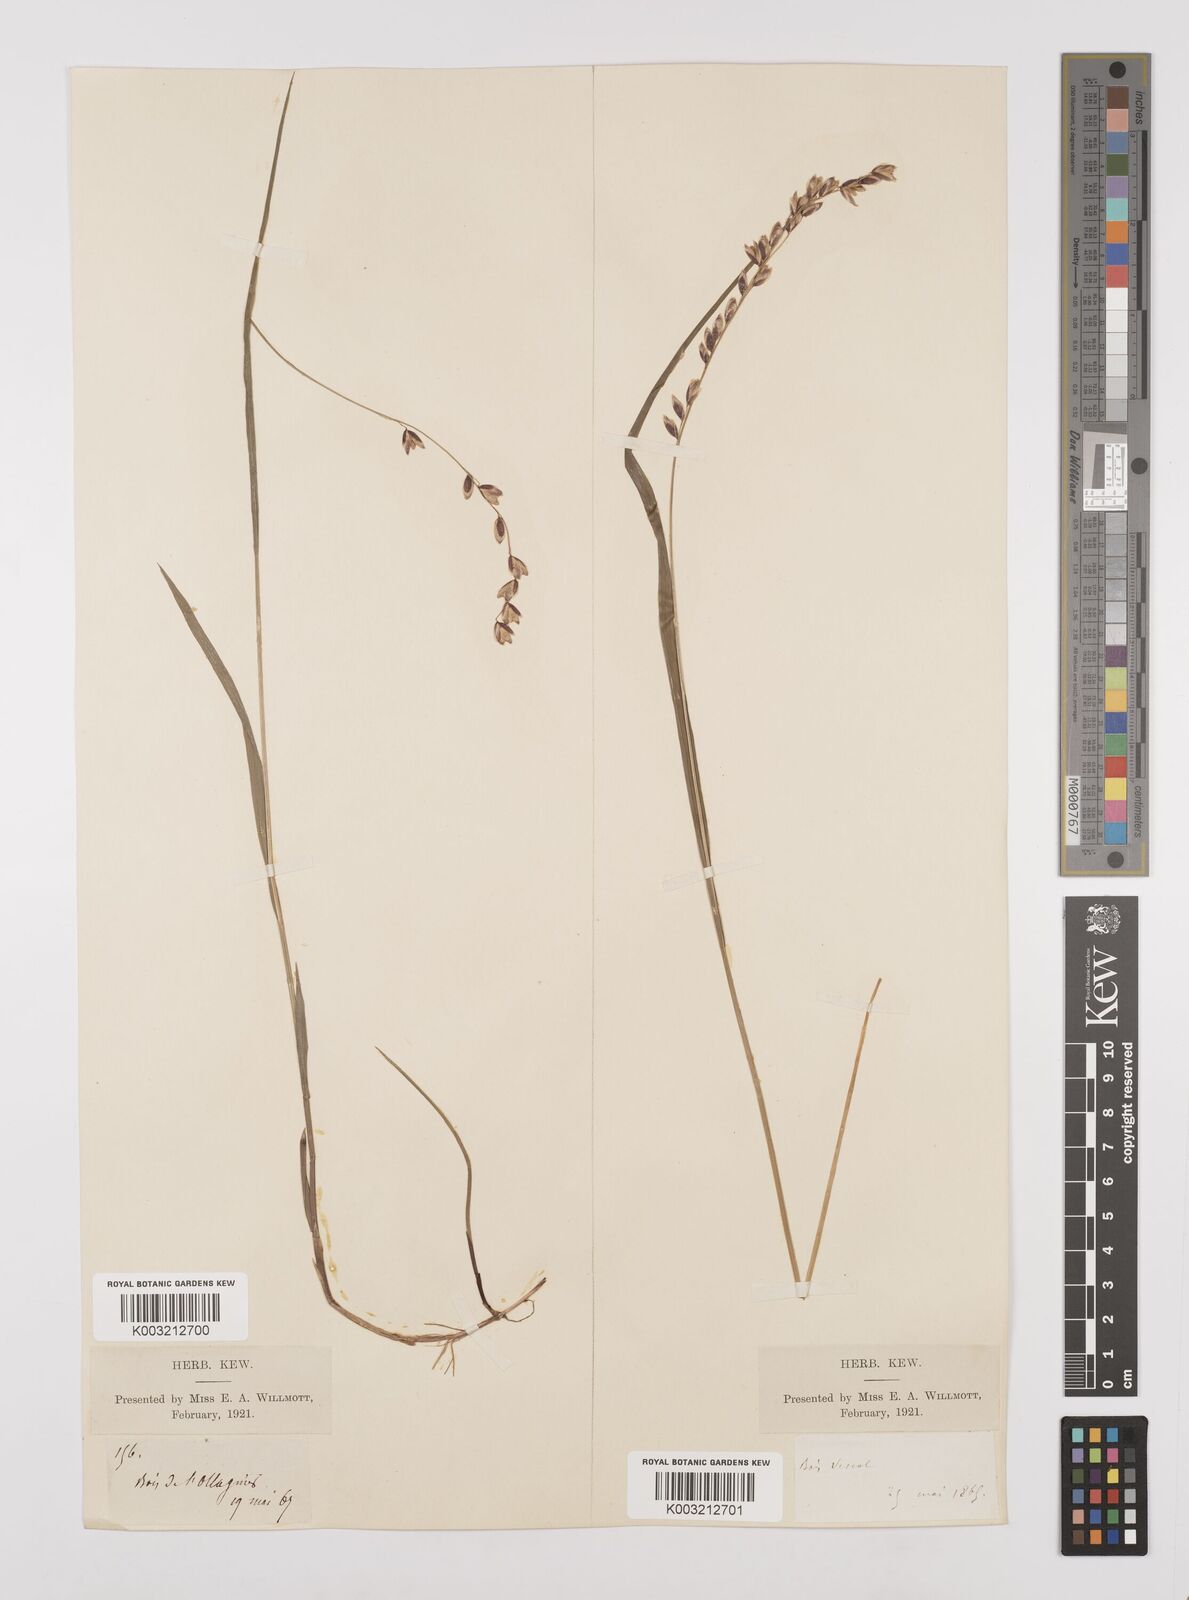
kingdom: Plantae
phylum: Tracheophyta
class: Liliopsida
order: Poales
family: Poaceae
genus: Melica
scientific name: Melica nutans
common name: Mountain melick
